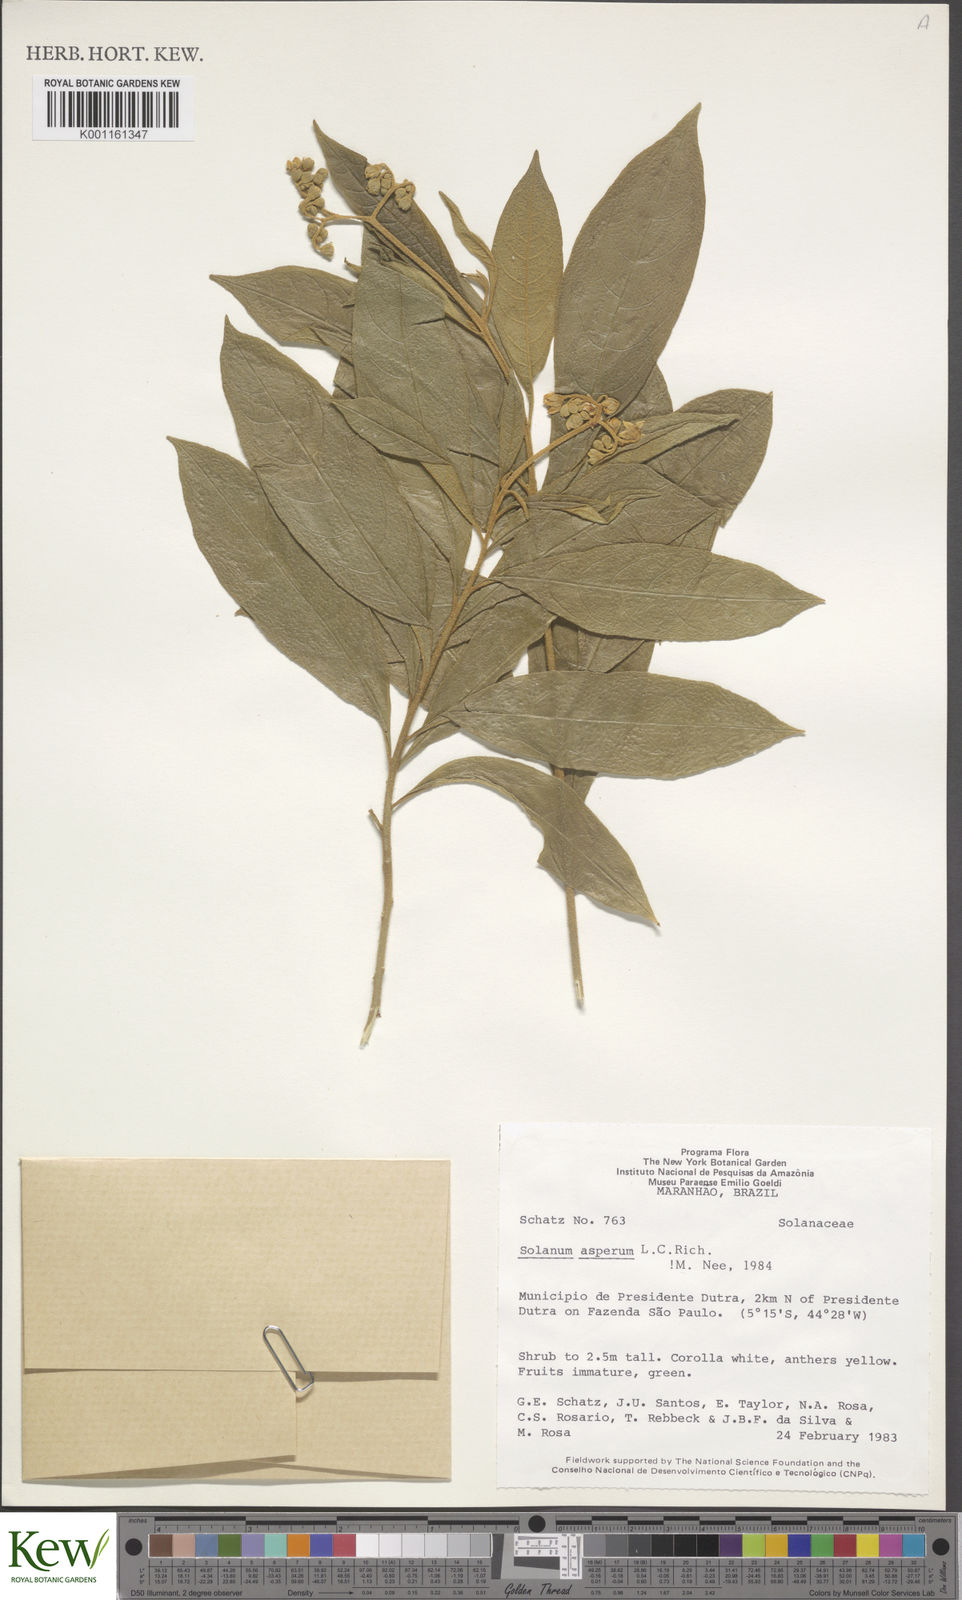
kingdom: Plantae
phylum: Tracheophyta
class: Magnoliopsida
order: Solanales
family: Solanaceae
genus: Solanum
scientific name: Solanum asperum
